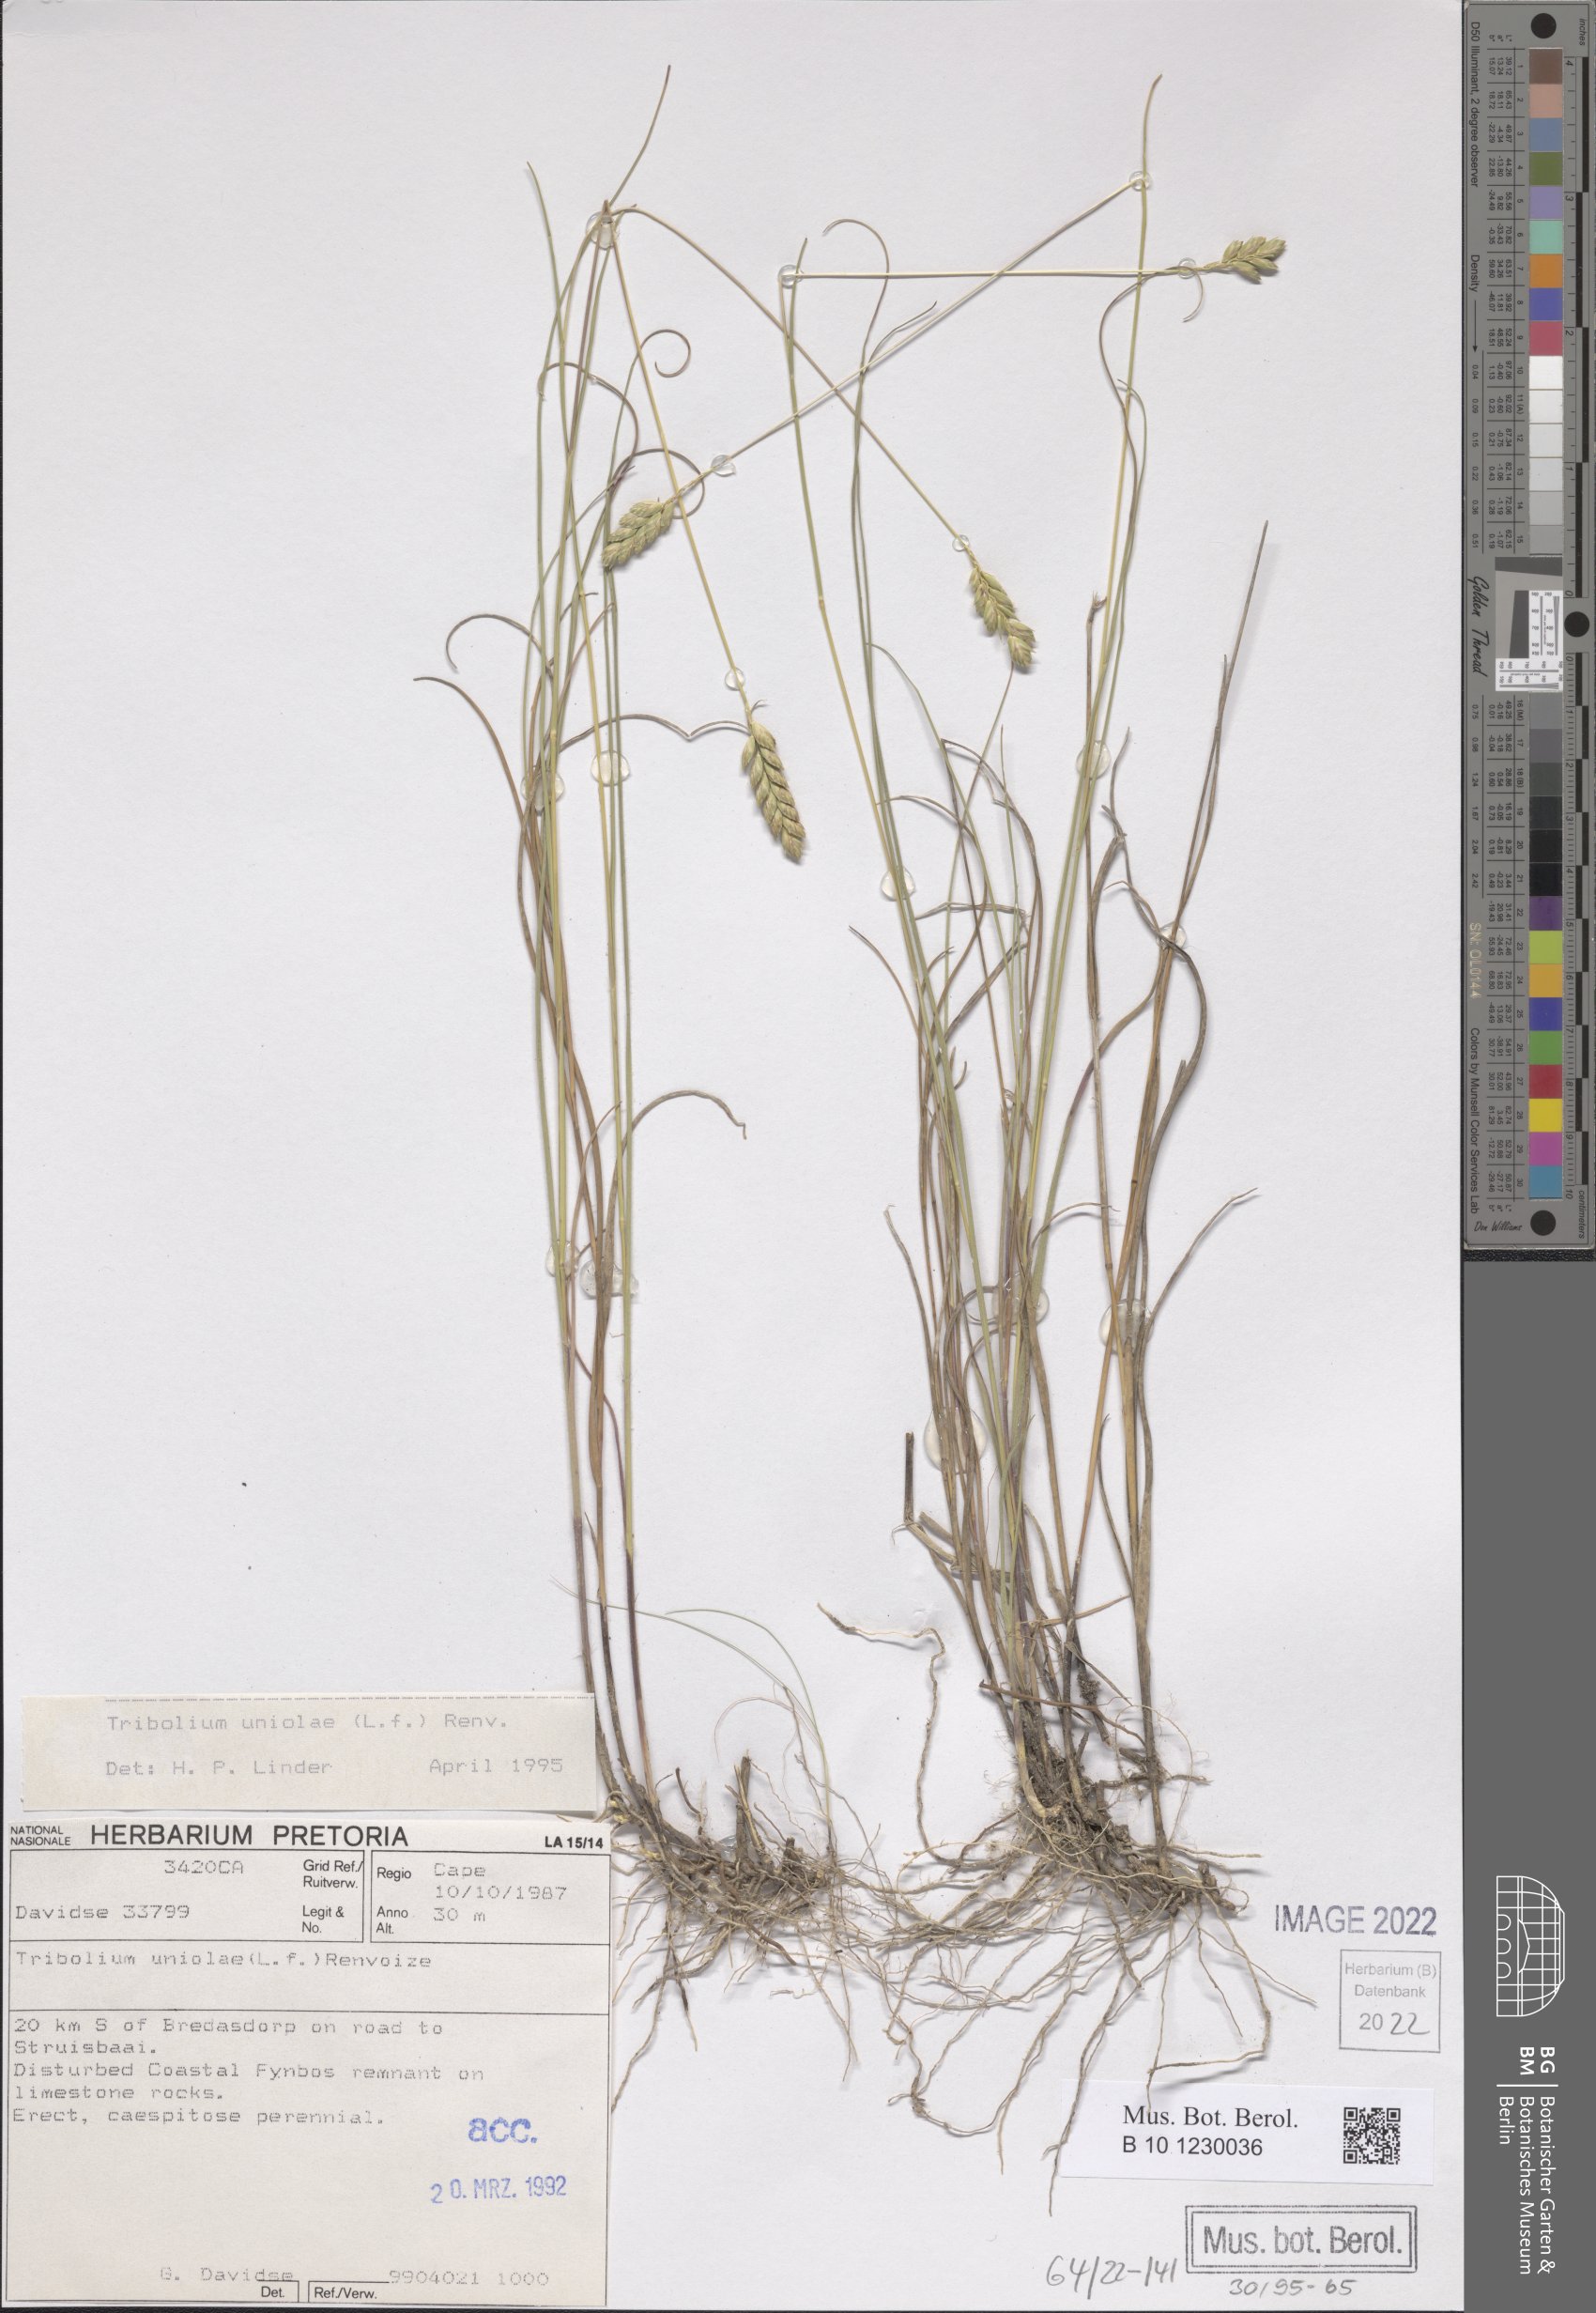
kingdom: Plantae
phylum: Tracheophyta
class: Liliopsida
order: Poales
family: Poaceae
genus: Tribolium
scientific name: Tribolium uniolae
